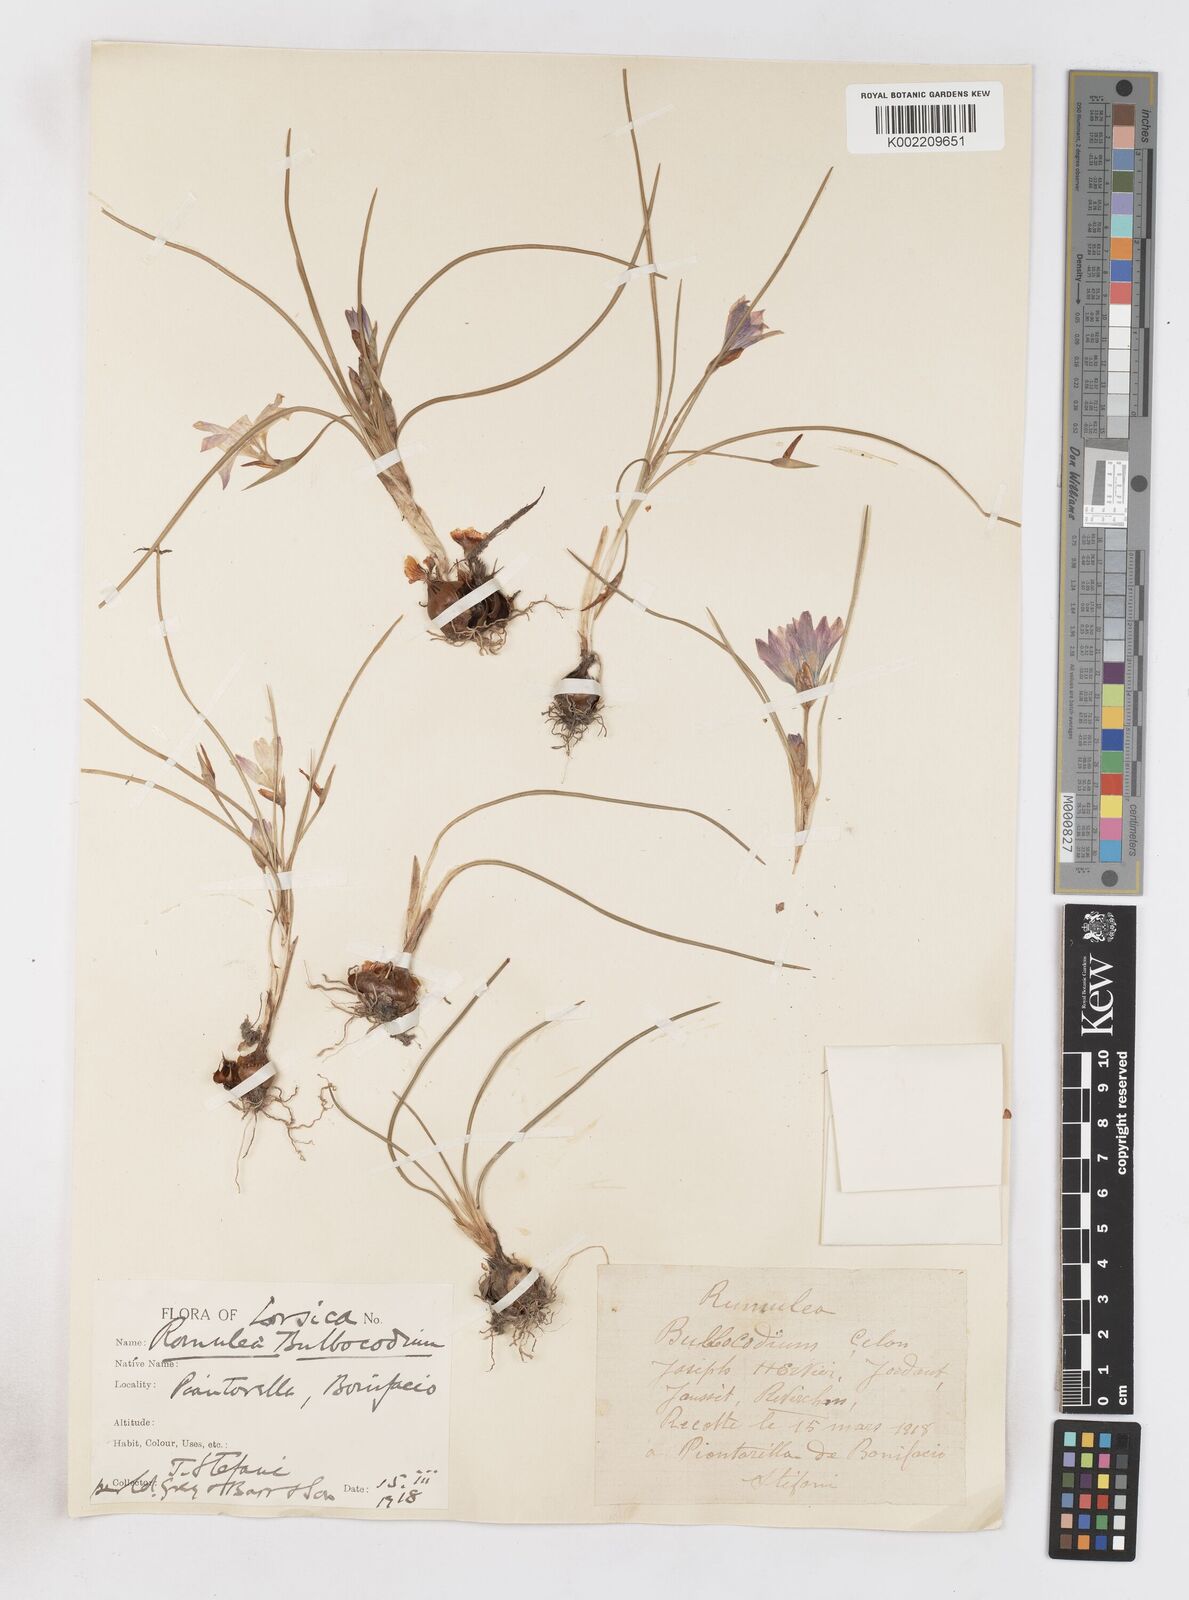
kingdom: Plantae
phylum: Tracheophyta
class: Liliopsida
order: Asparagales
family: Iridaceae
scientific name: Iridaceae
